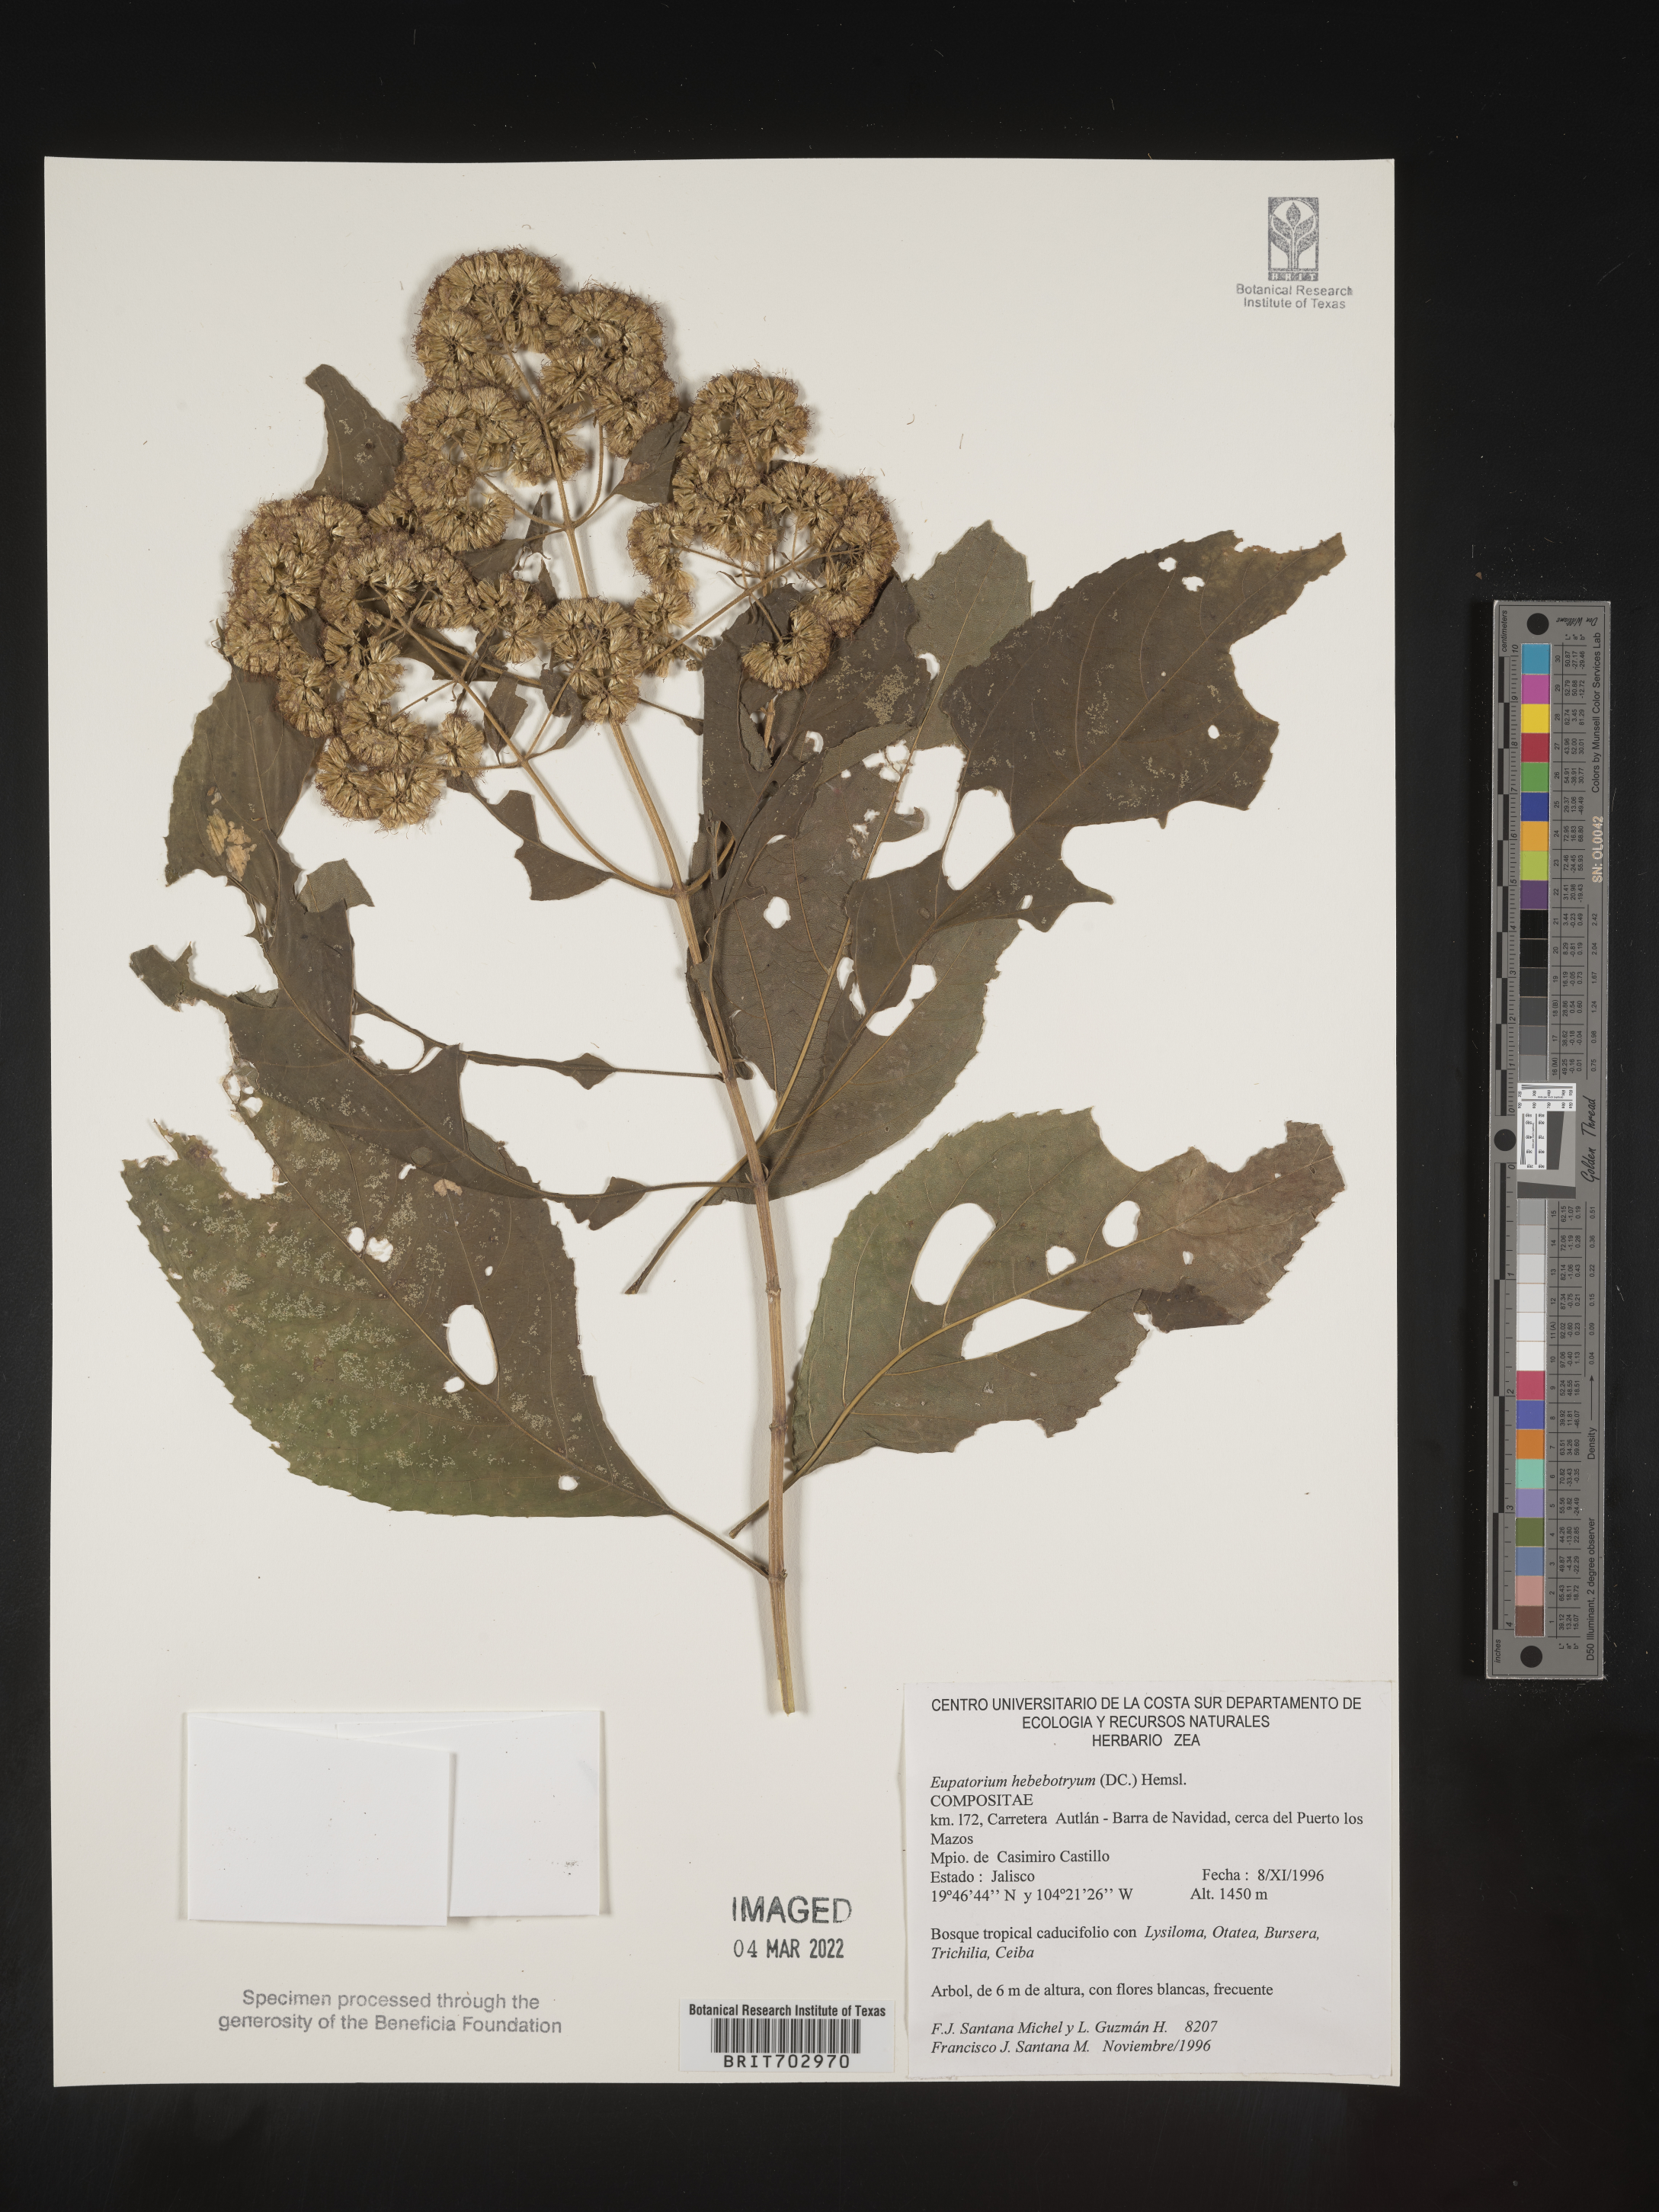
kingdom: Plantae
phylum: Tracheophyta
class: Magnoliopsida
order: Asterales
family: Asteraceae
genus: Eupatorium
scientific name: Eupatorium
